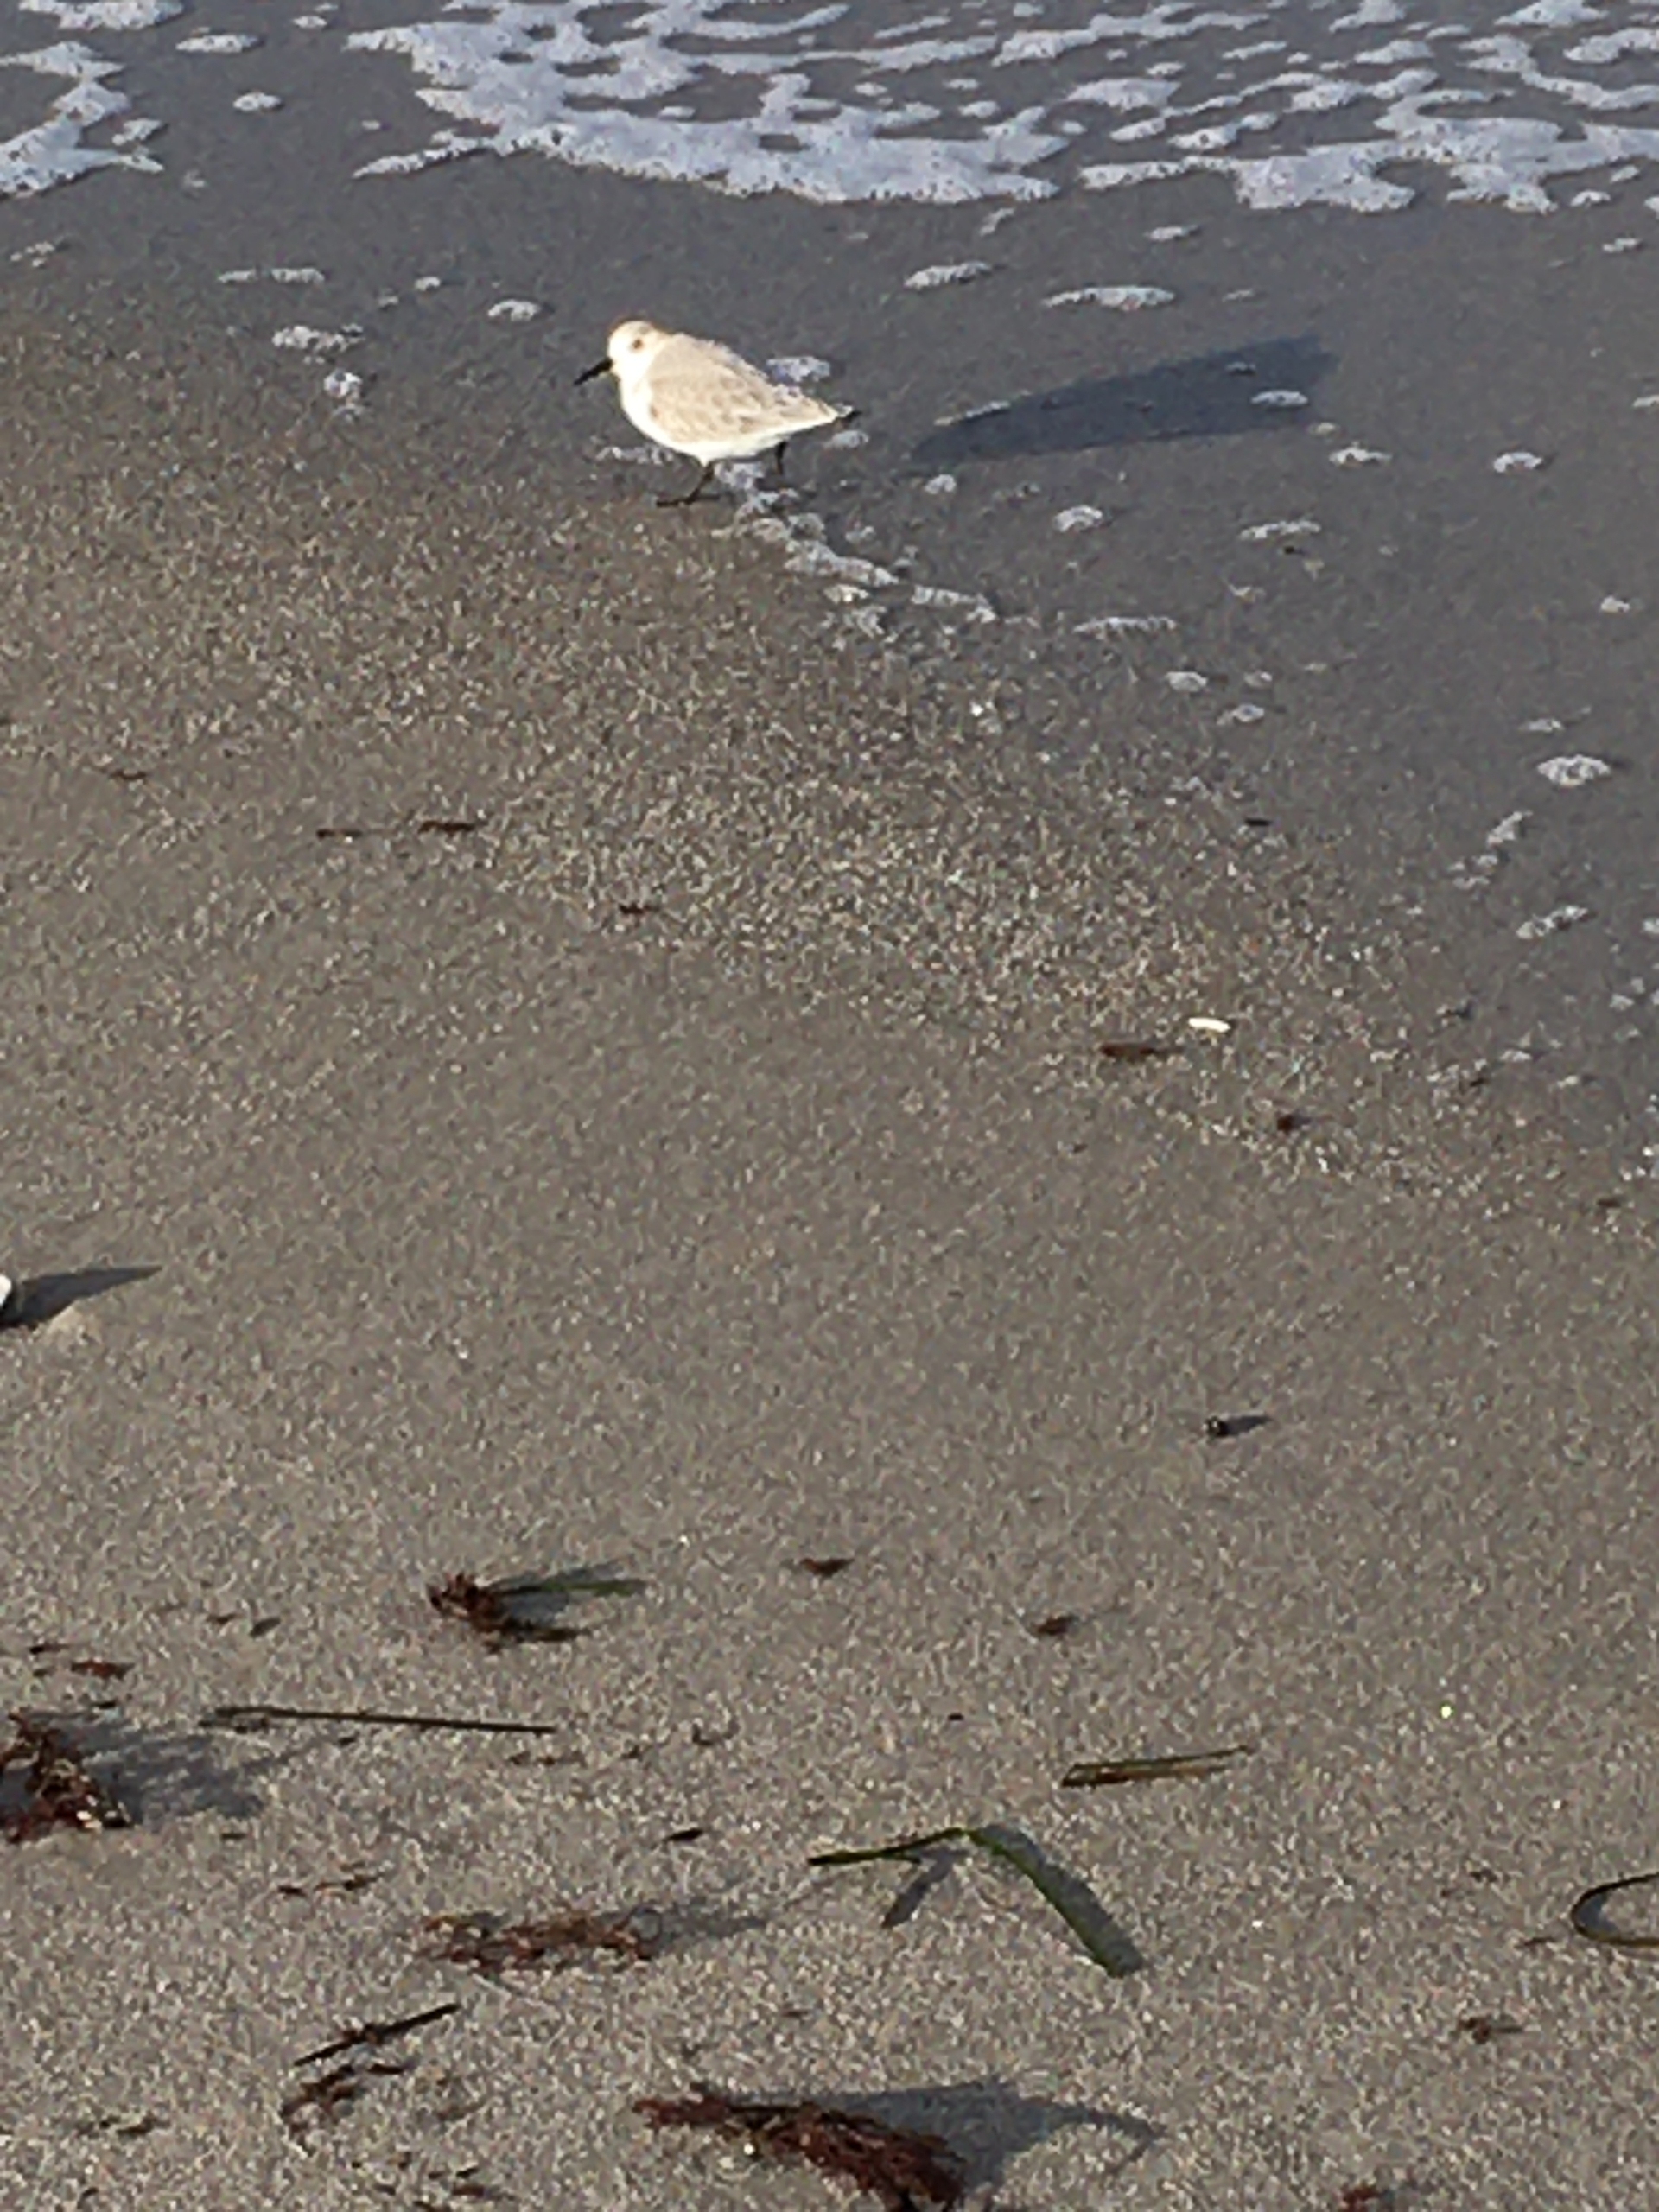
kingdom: Animalia
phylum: Chordata
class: Aves
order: Charadriiformes
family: Scolopacidae
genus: Calidris
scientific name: Calidris alba
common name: Sandløber
